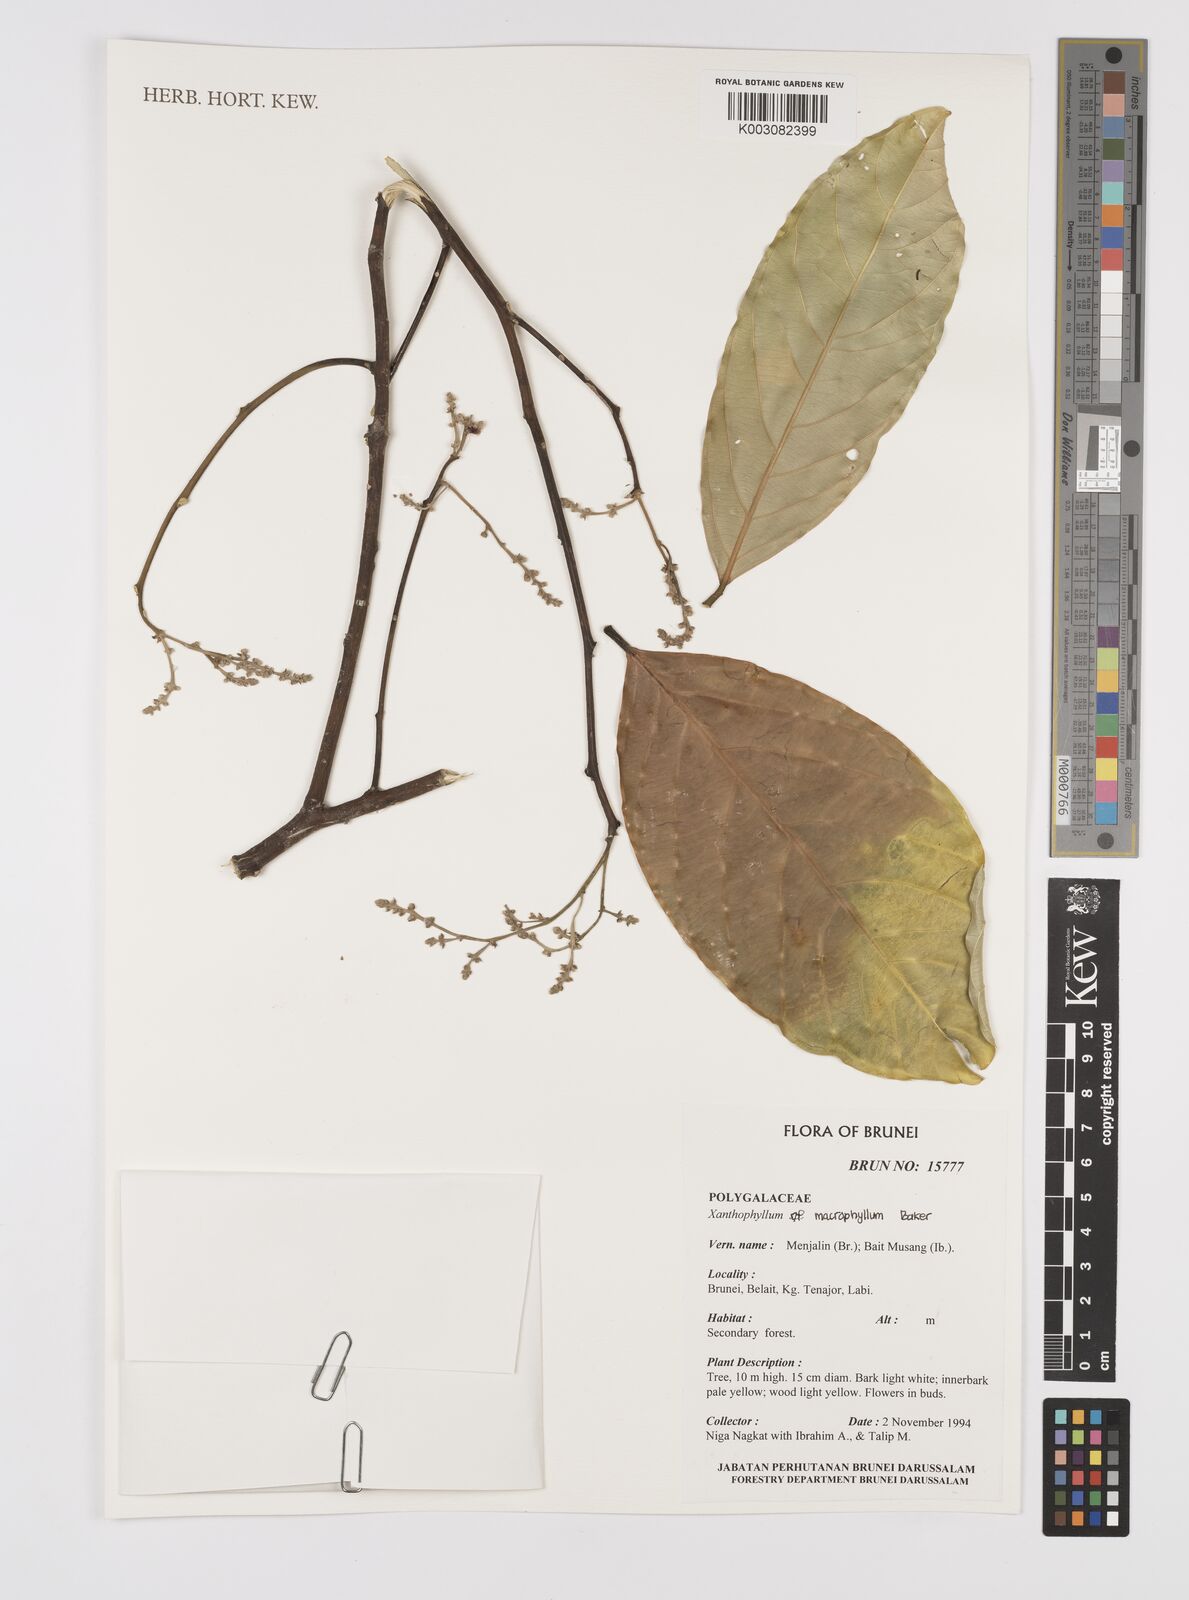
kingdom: Plantae
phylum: Tracheophyta
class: Magnoliopsida
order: Fabales
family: Polygalaceae
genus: Xanthophyllum
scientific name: Xanthophyllum macrophyllum
